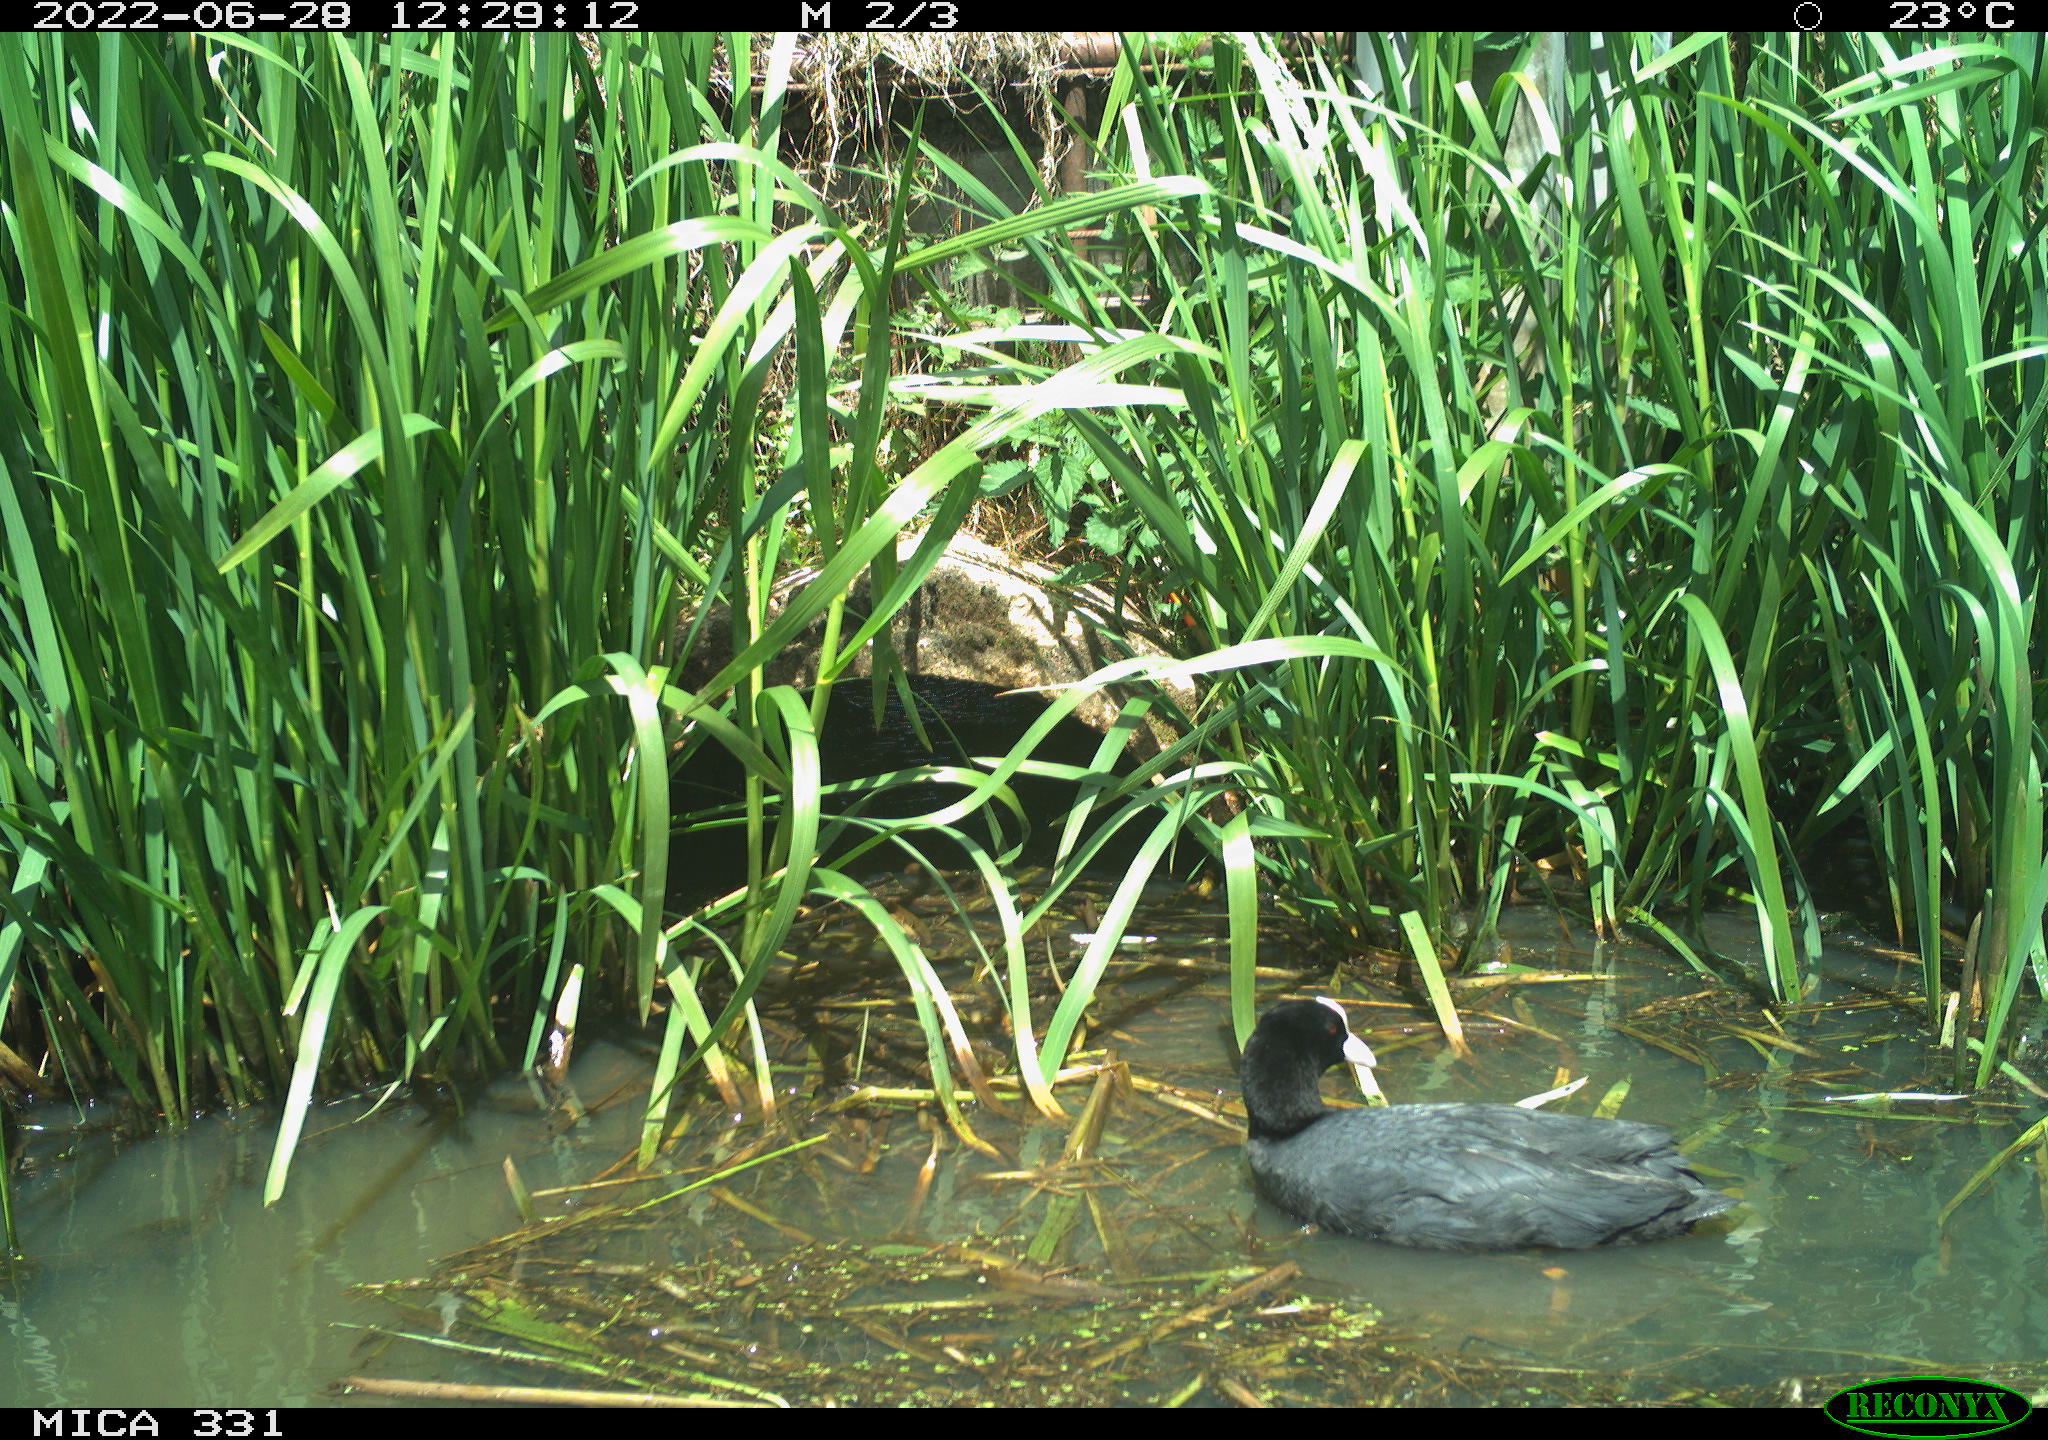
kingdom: Animalia
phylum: Chordata
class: Aves
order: Gruiformes
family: Rallidae
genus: Fulica
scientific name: Fulica atra
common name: Eurasian coot
